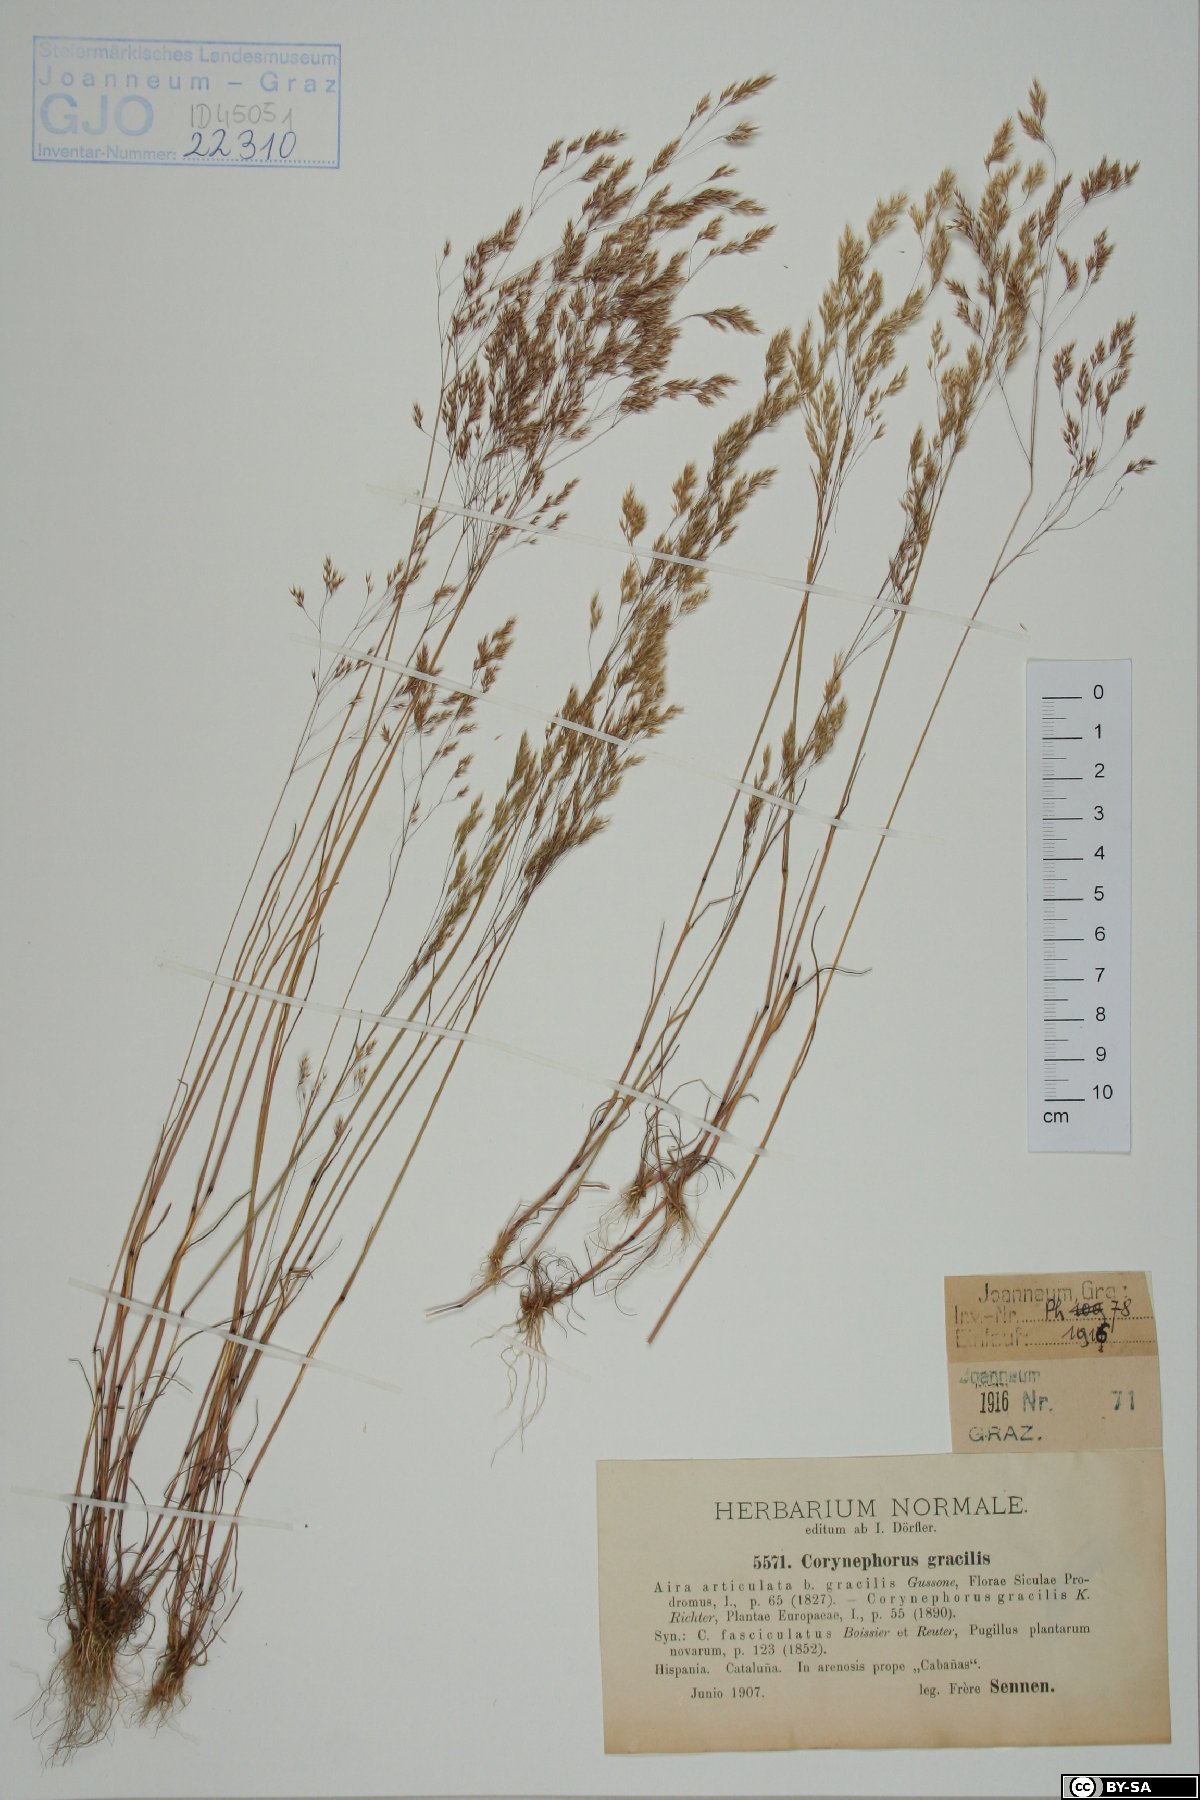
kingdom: Plantae
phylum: Tracheophyta
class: Liliopsida
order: Poales
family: Poaceae
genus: Corynephorus
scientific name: Corynephorus fasciculatus
